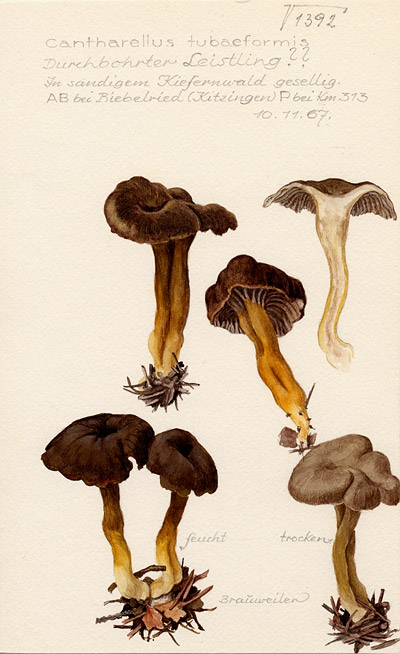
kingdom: Fungi
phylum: Basidiomycota
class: Agaricomycetes
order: Cantharellales
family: Hydnaceae
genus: Craterellus
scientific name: Craterellus tubaeformis
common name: Yellowfoot
